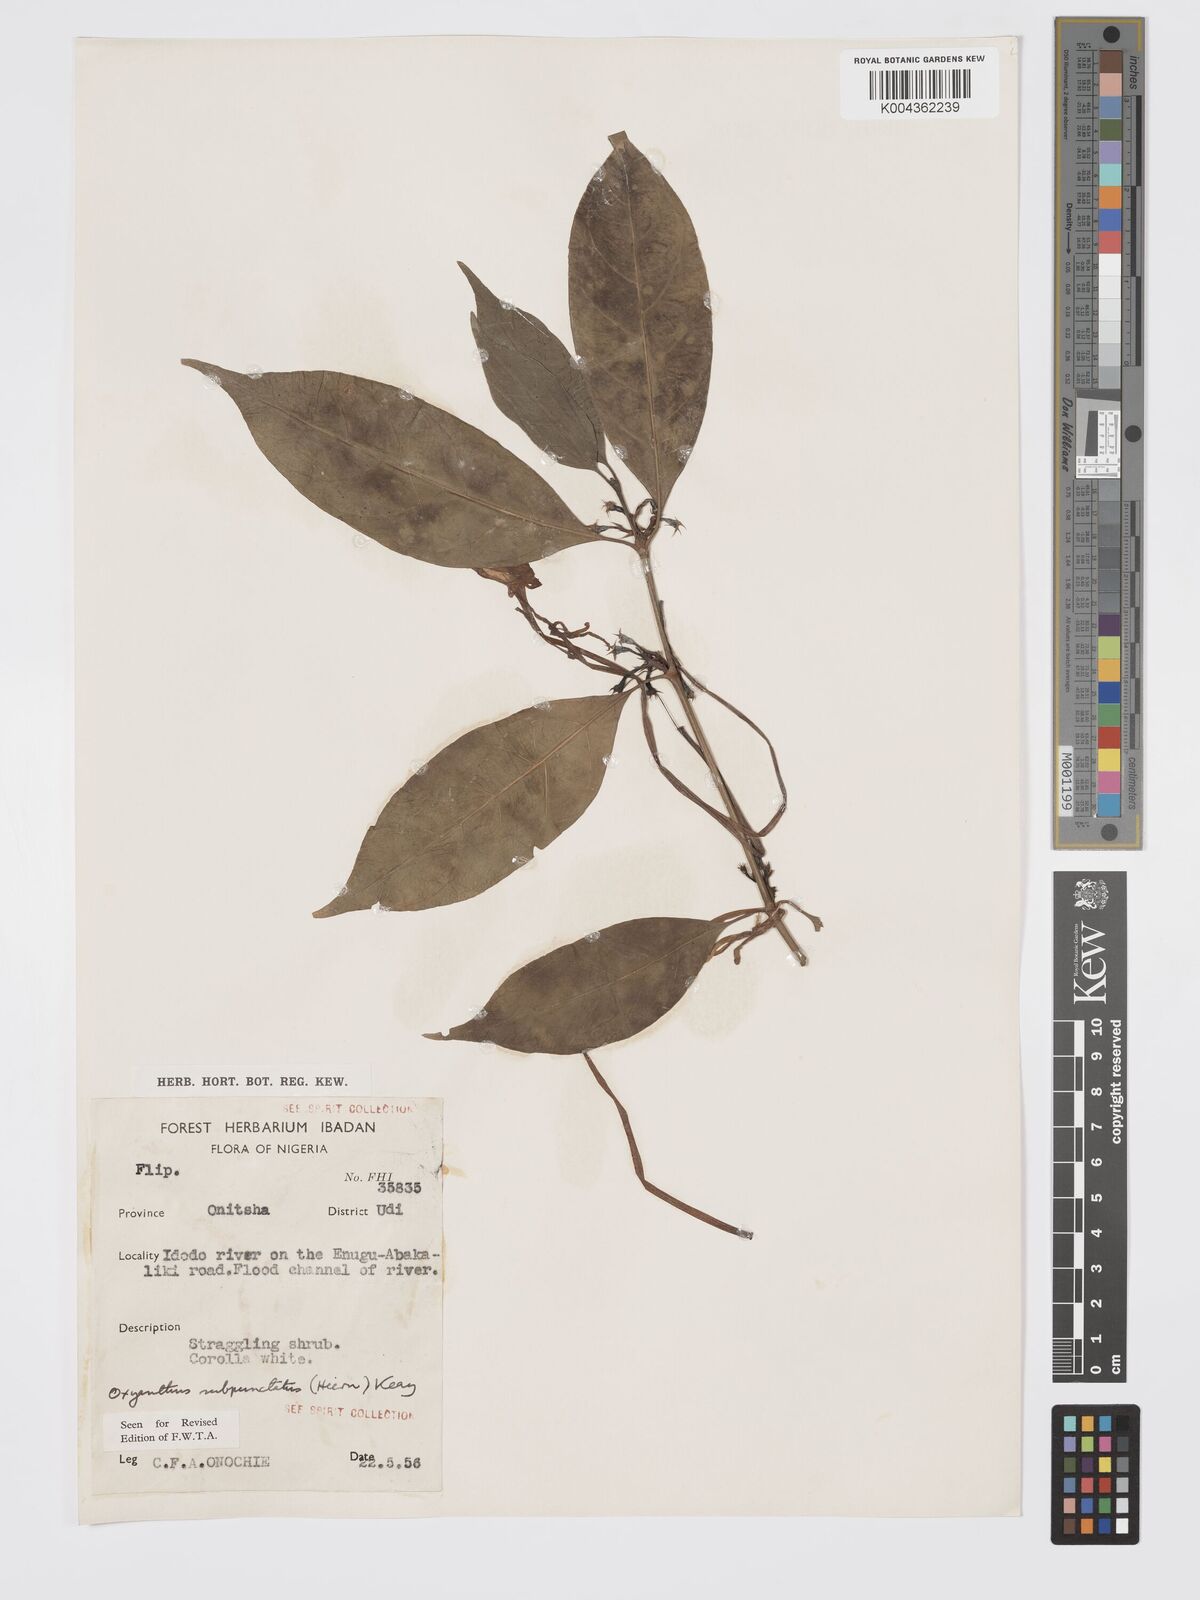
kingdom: Plantae
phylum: Tracheophyta
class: Magnoliopsida
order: Gentianales
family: Rubiaceae
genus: Oxyanthus
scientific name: Oxyanthus subpunctatus
